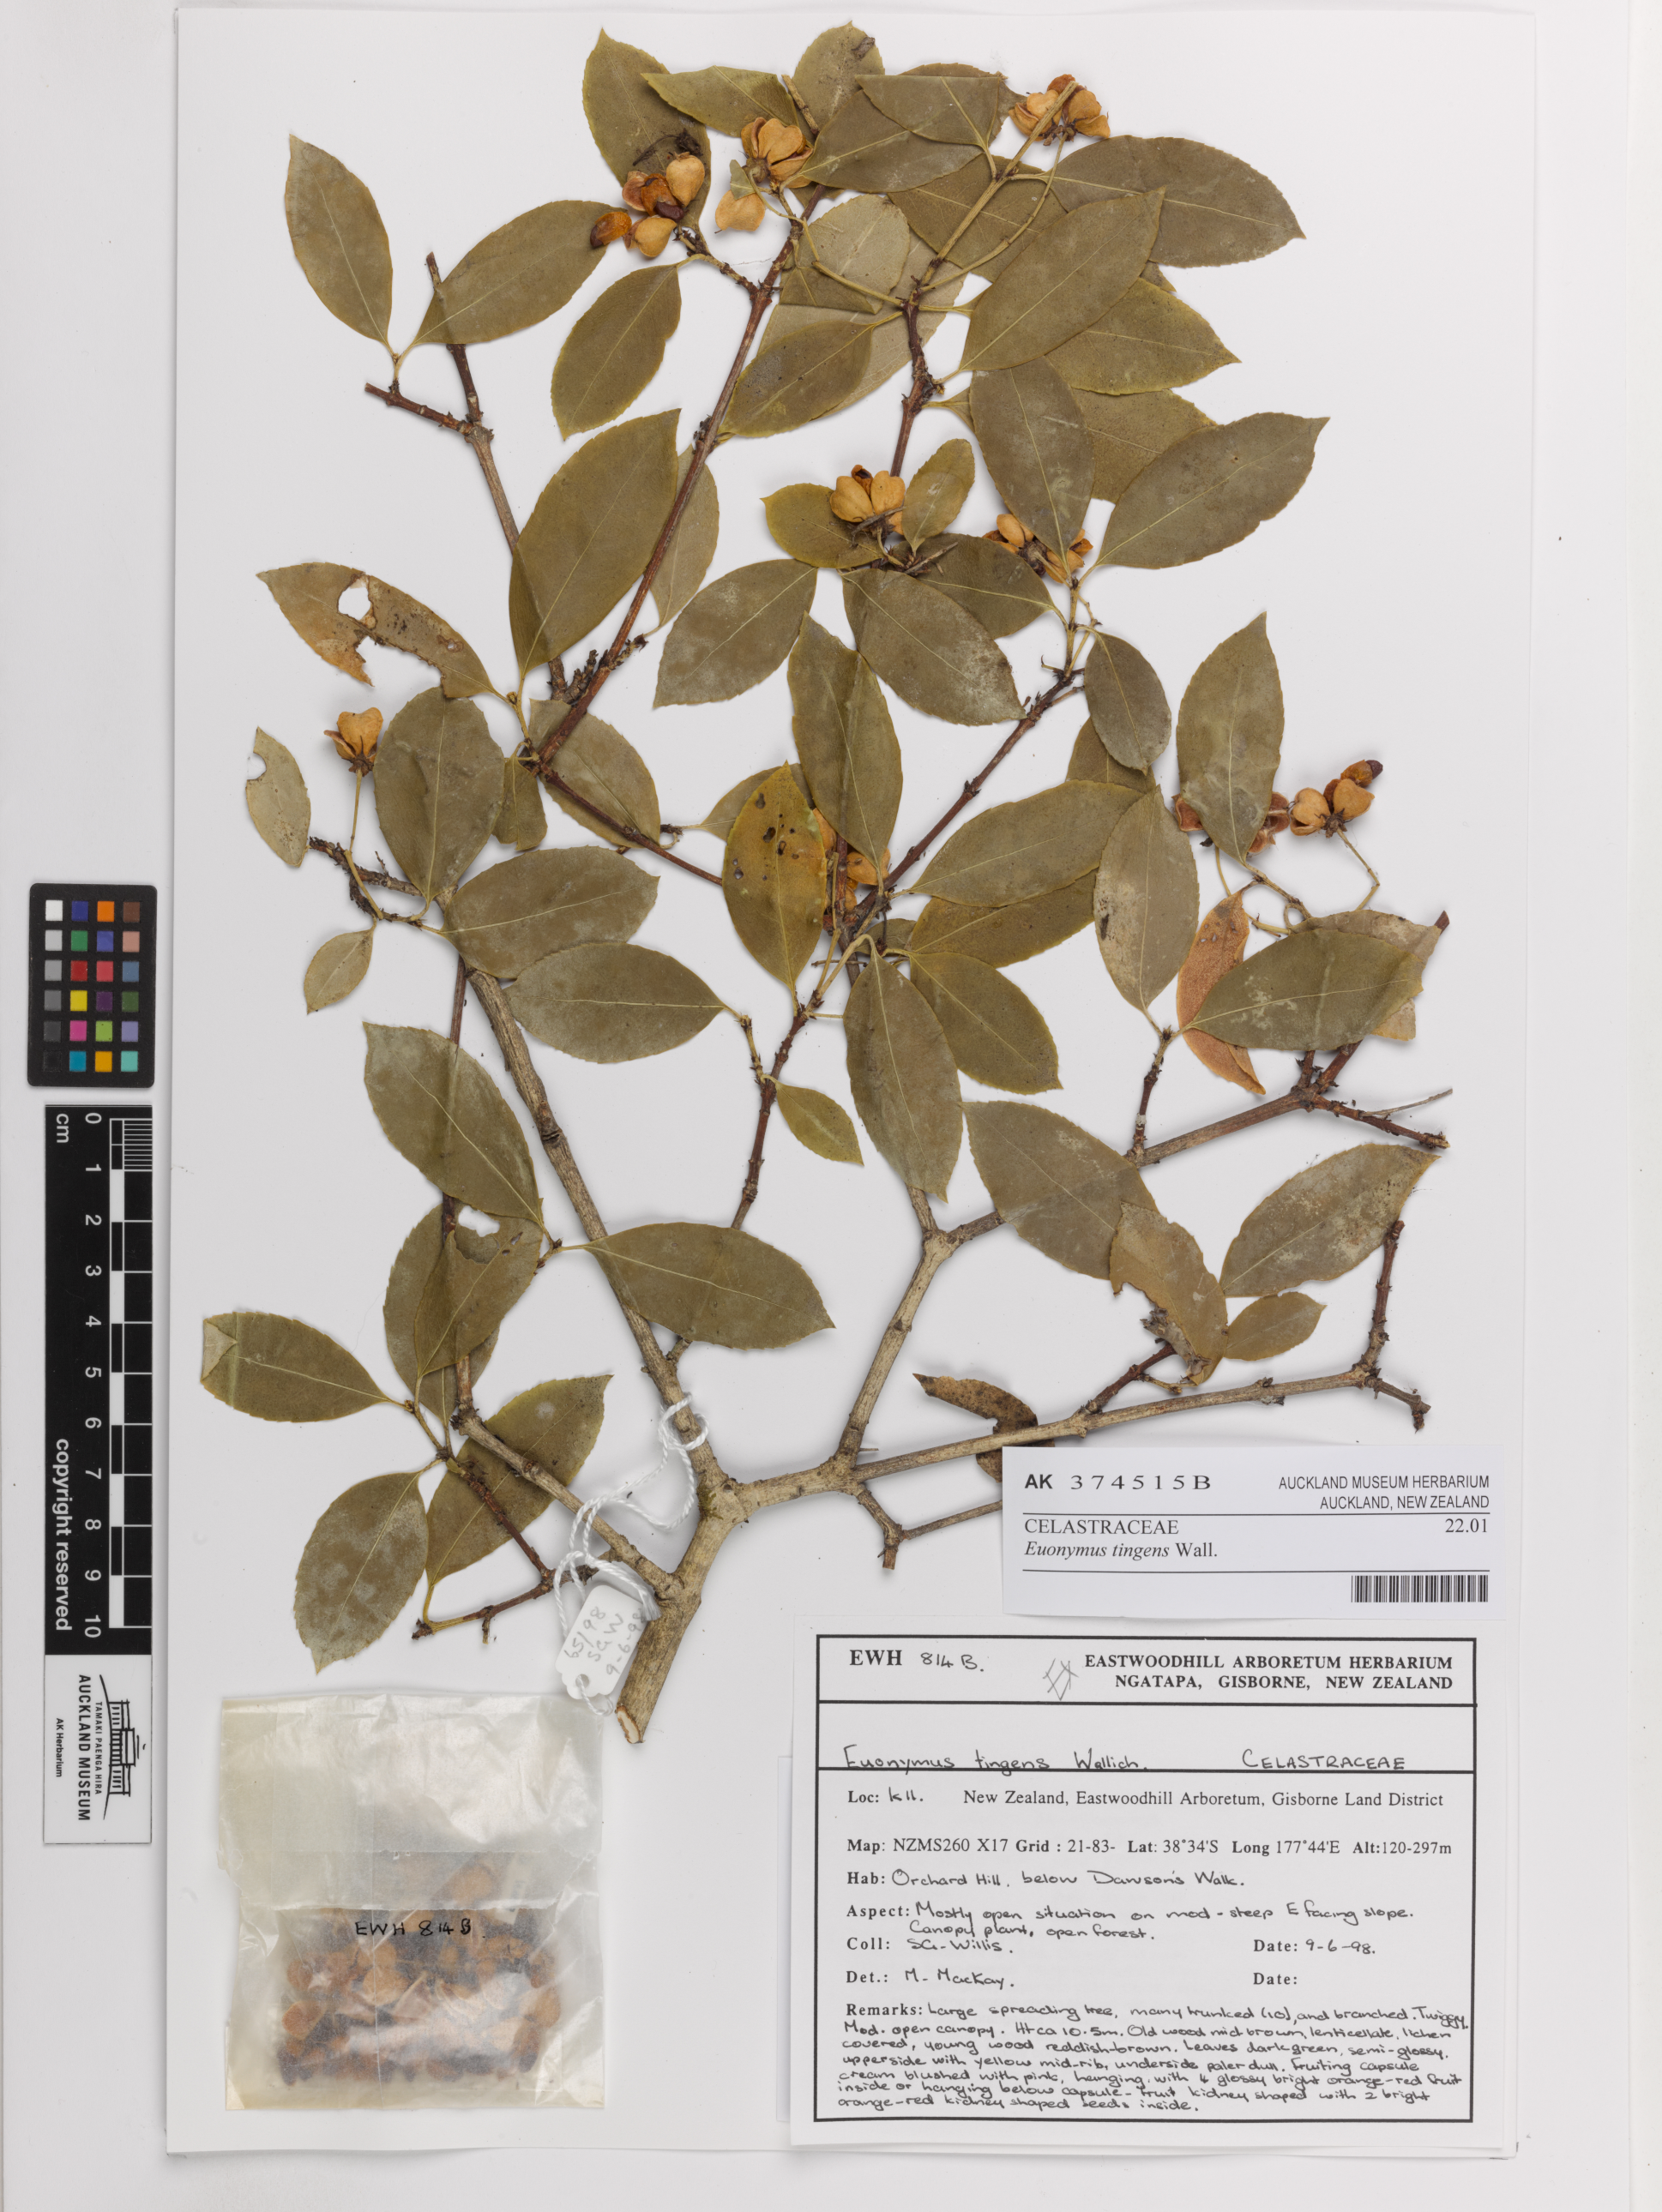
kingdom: Plantae
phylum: Tracheophyta
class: Magnoliopsida
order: Celastrales
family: Celastraceae
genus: Euonymus
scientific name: Euonymus tingens
